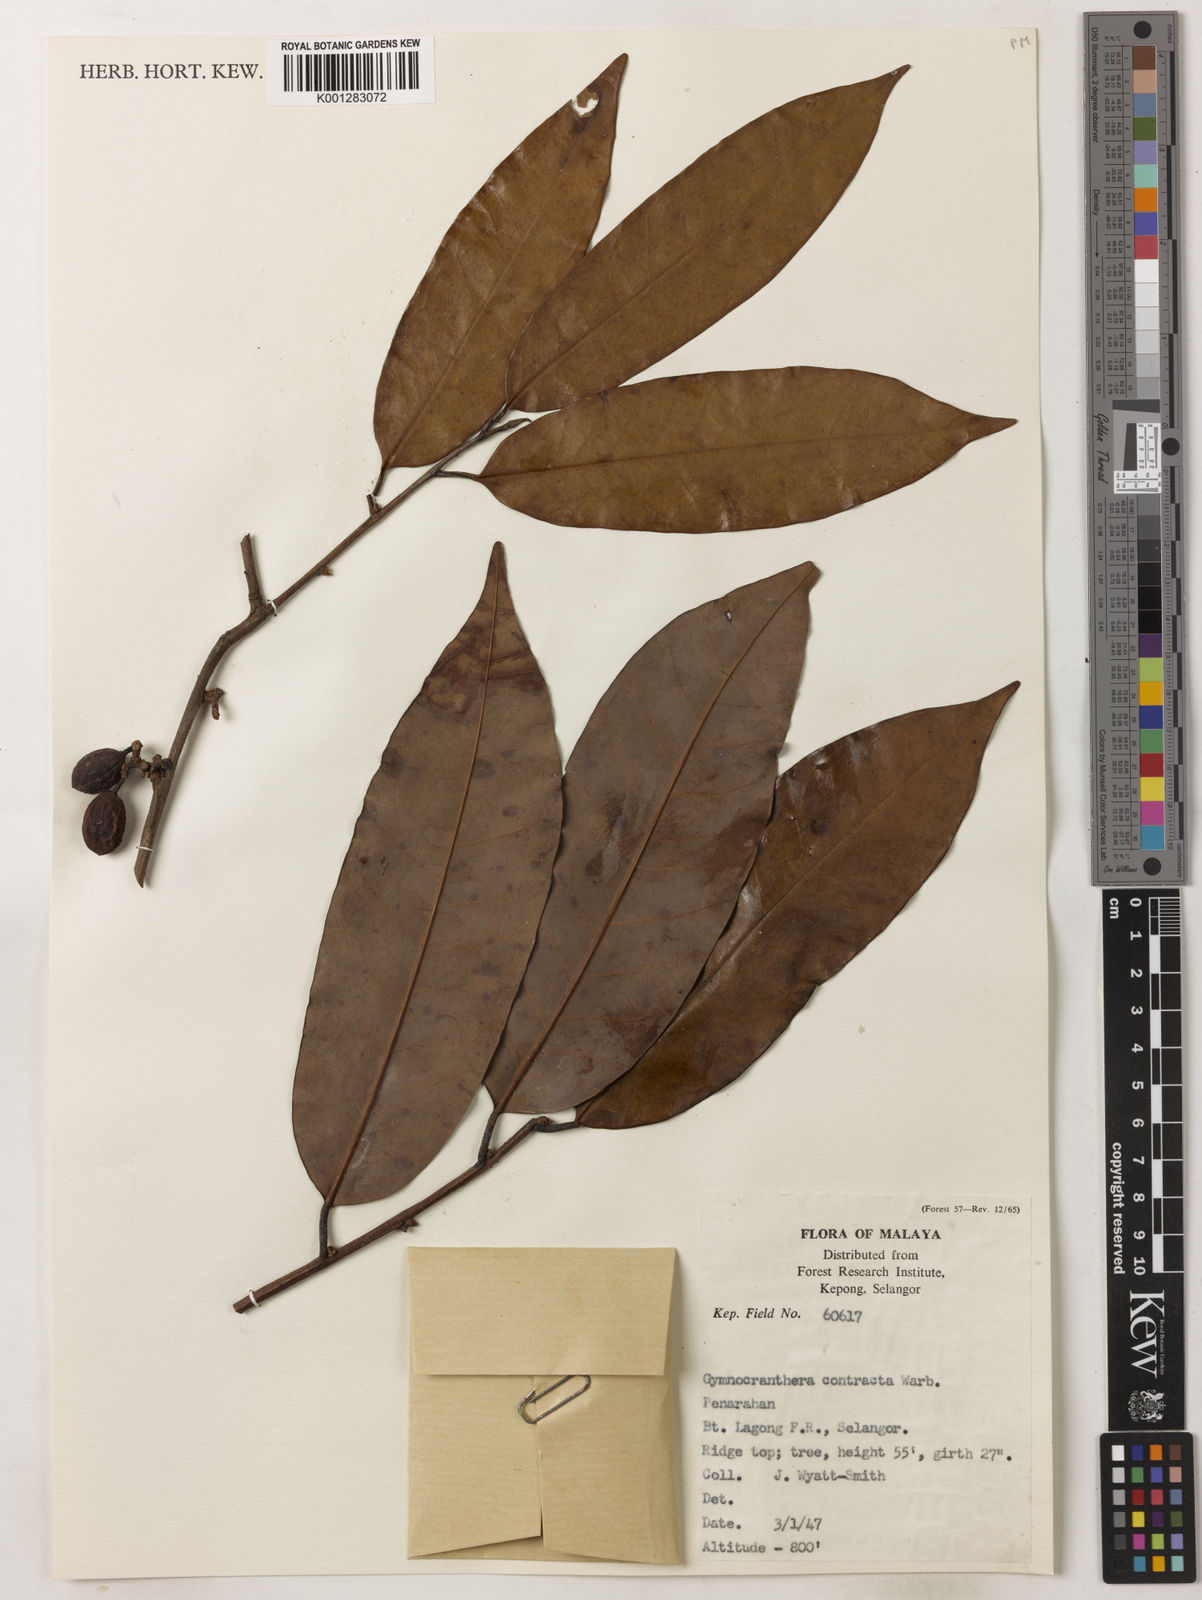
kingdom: Plantae
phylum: Tracheophyta
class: Magnoliopsida
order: Magnoliales
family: Myristicaceae
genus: Gymnacranthera
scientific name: Gymnacranthera contracta
